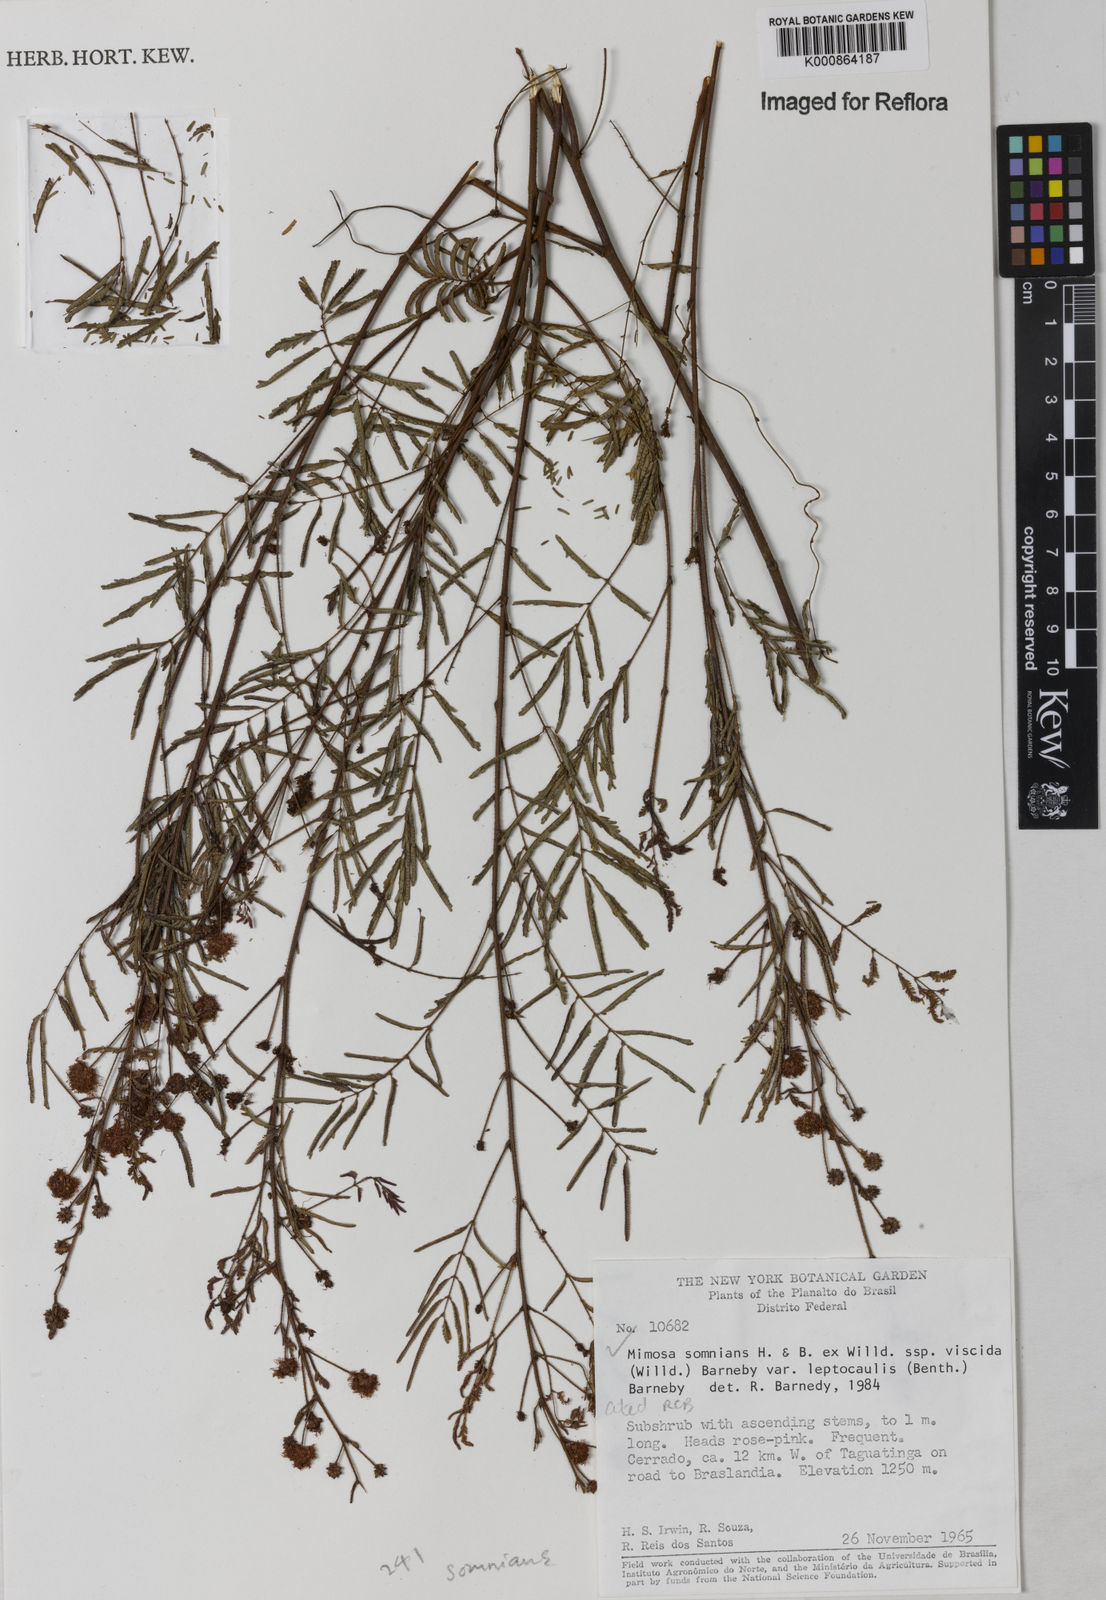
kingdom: Plantae
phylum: Tracheophyta
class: Magnoliopsida
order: Fabales
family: Fabaceae
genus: Mimosa
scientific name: Mimosa somnians
